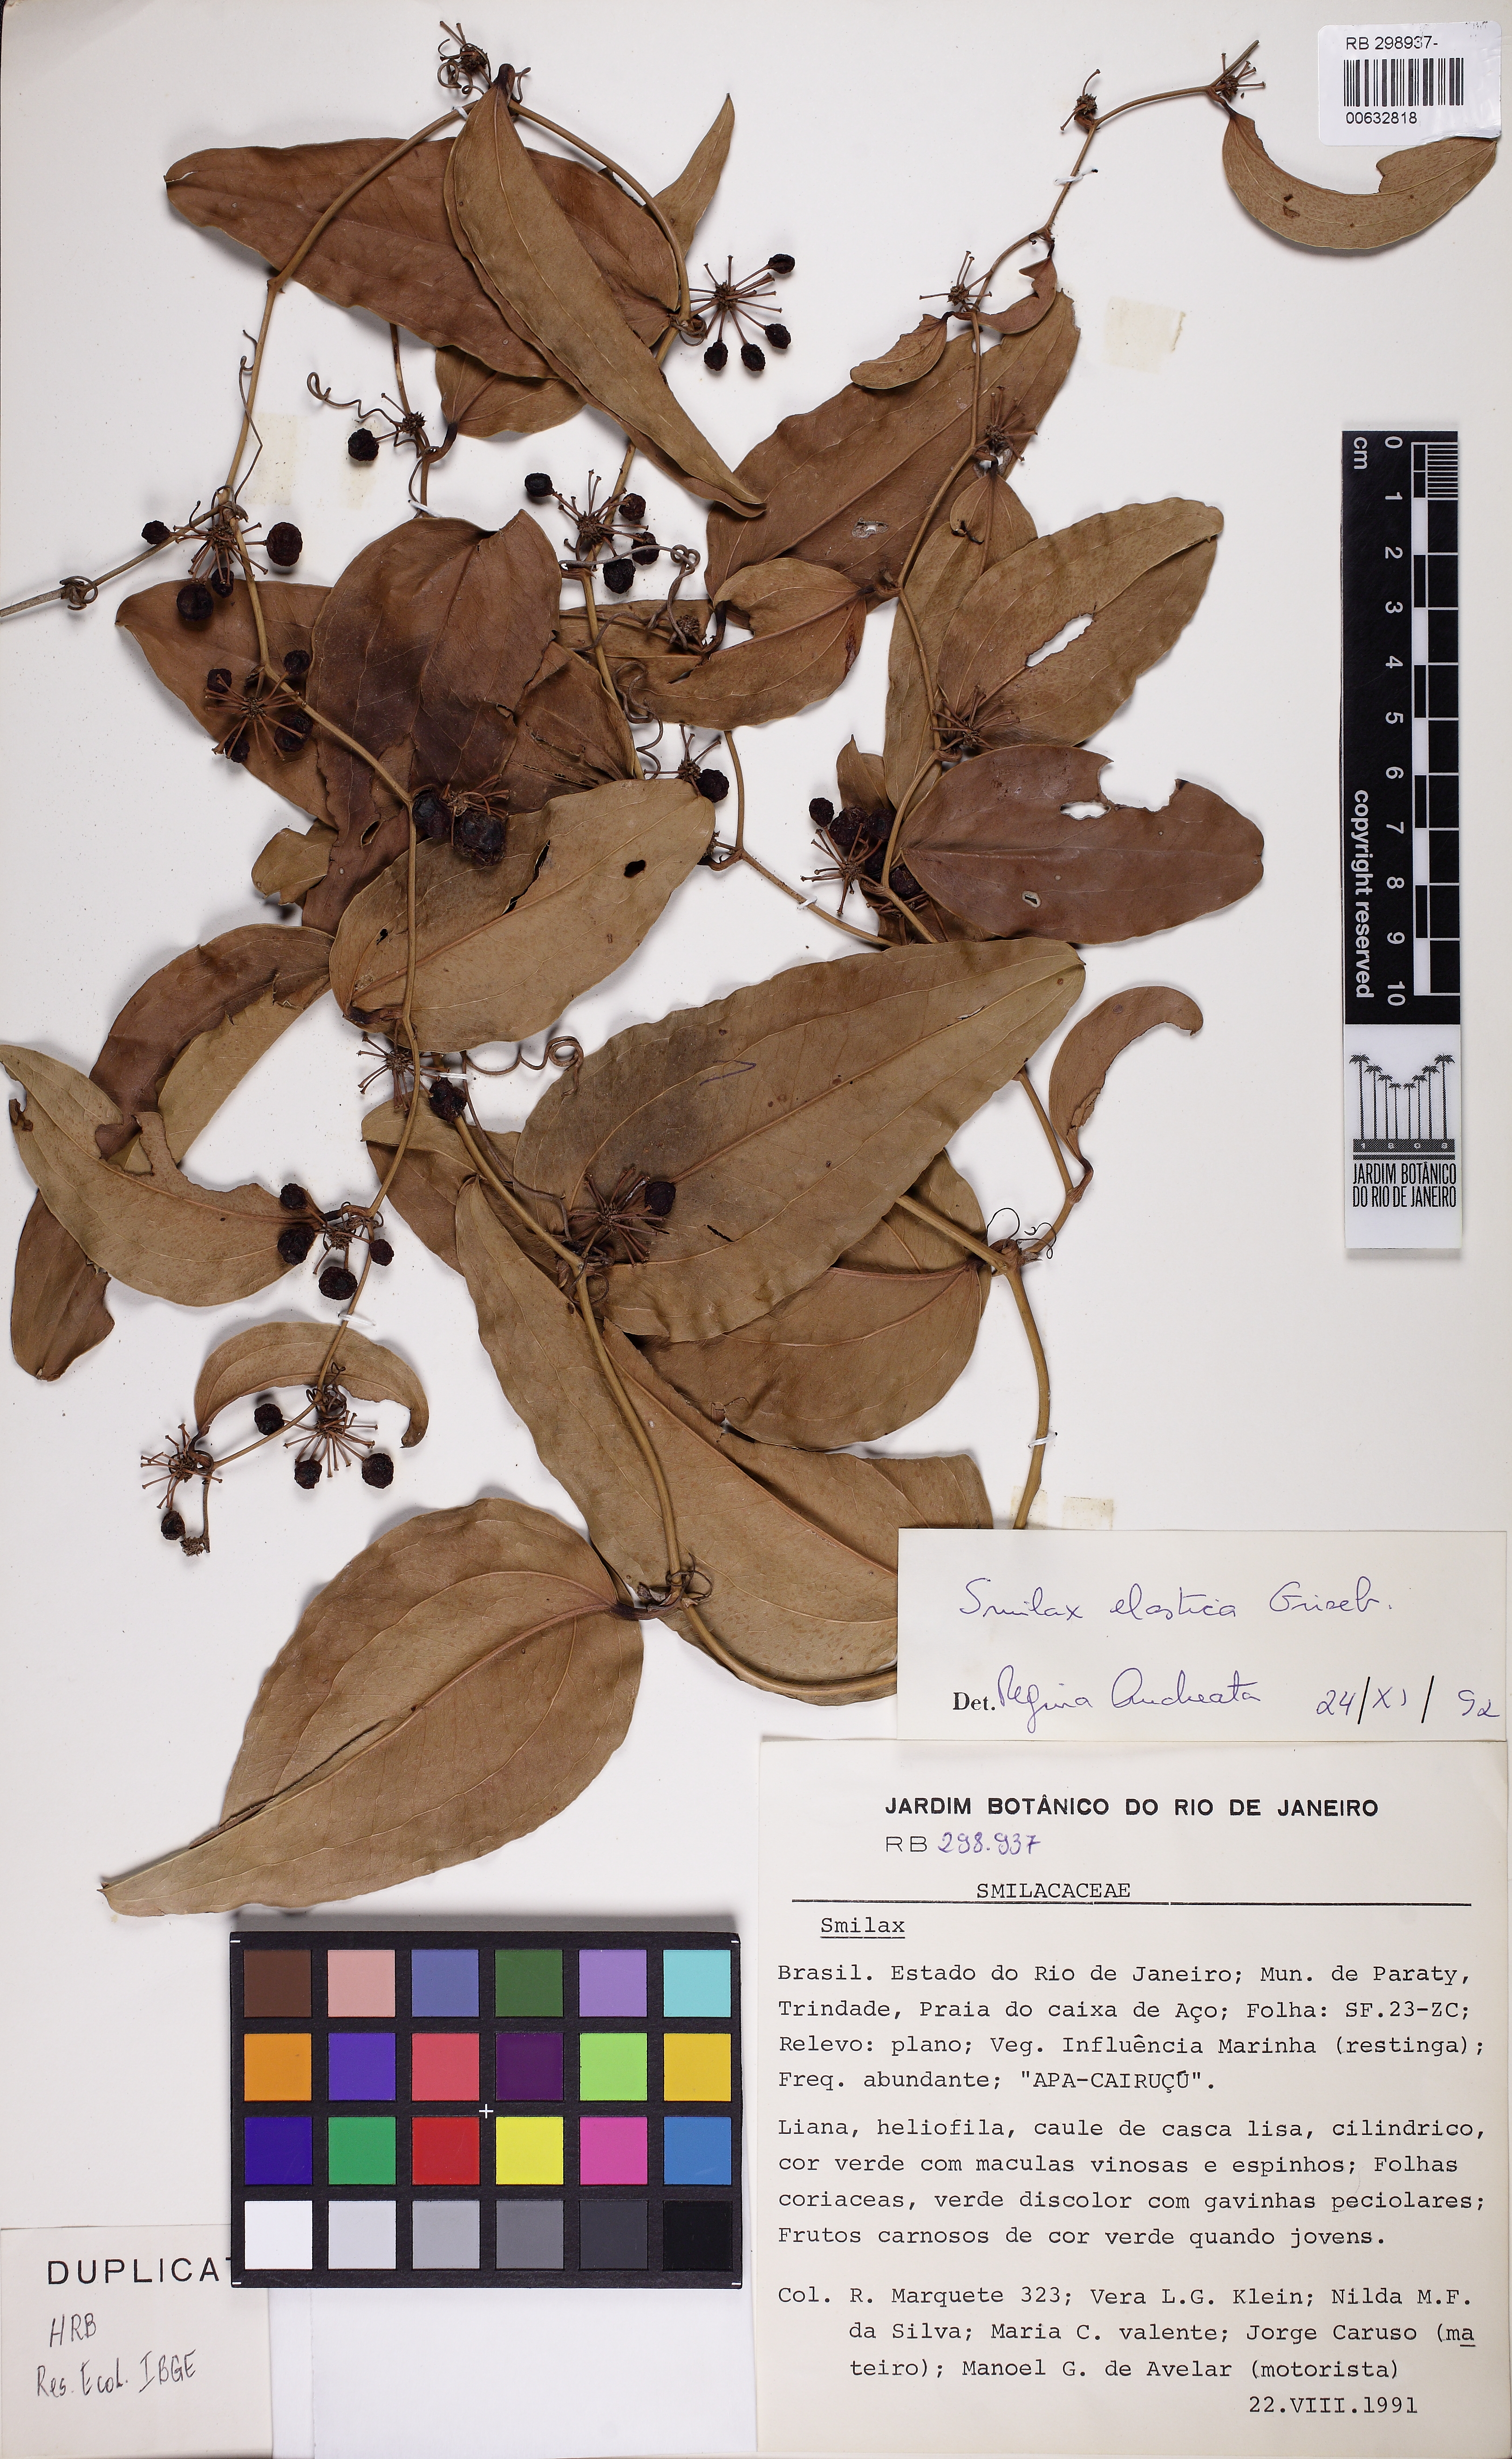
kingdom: Plantae
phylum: Tracheophyta
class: Liliopsida
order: Liliales
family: Smilacaceae
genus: Smilax
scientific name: Smilax elastica
